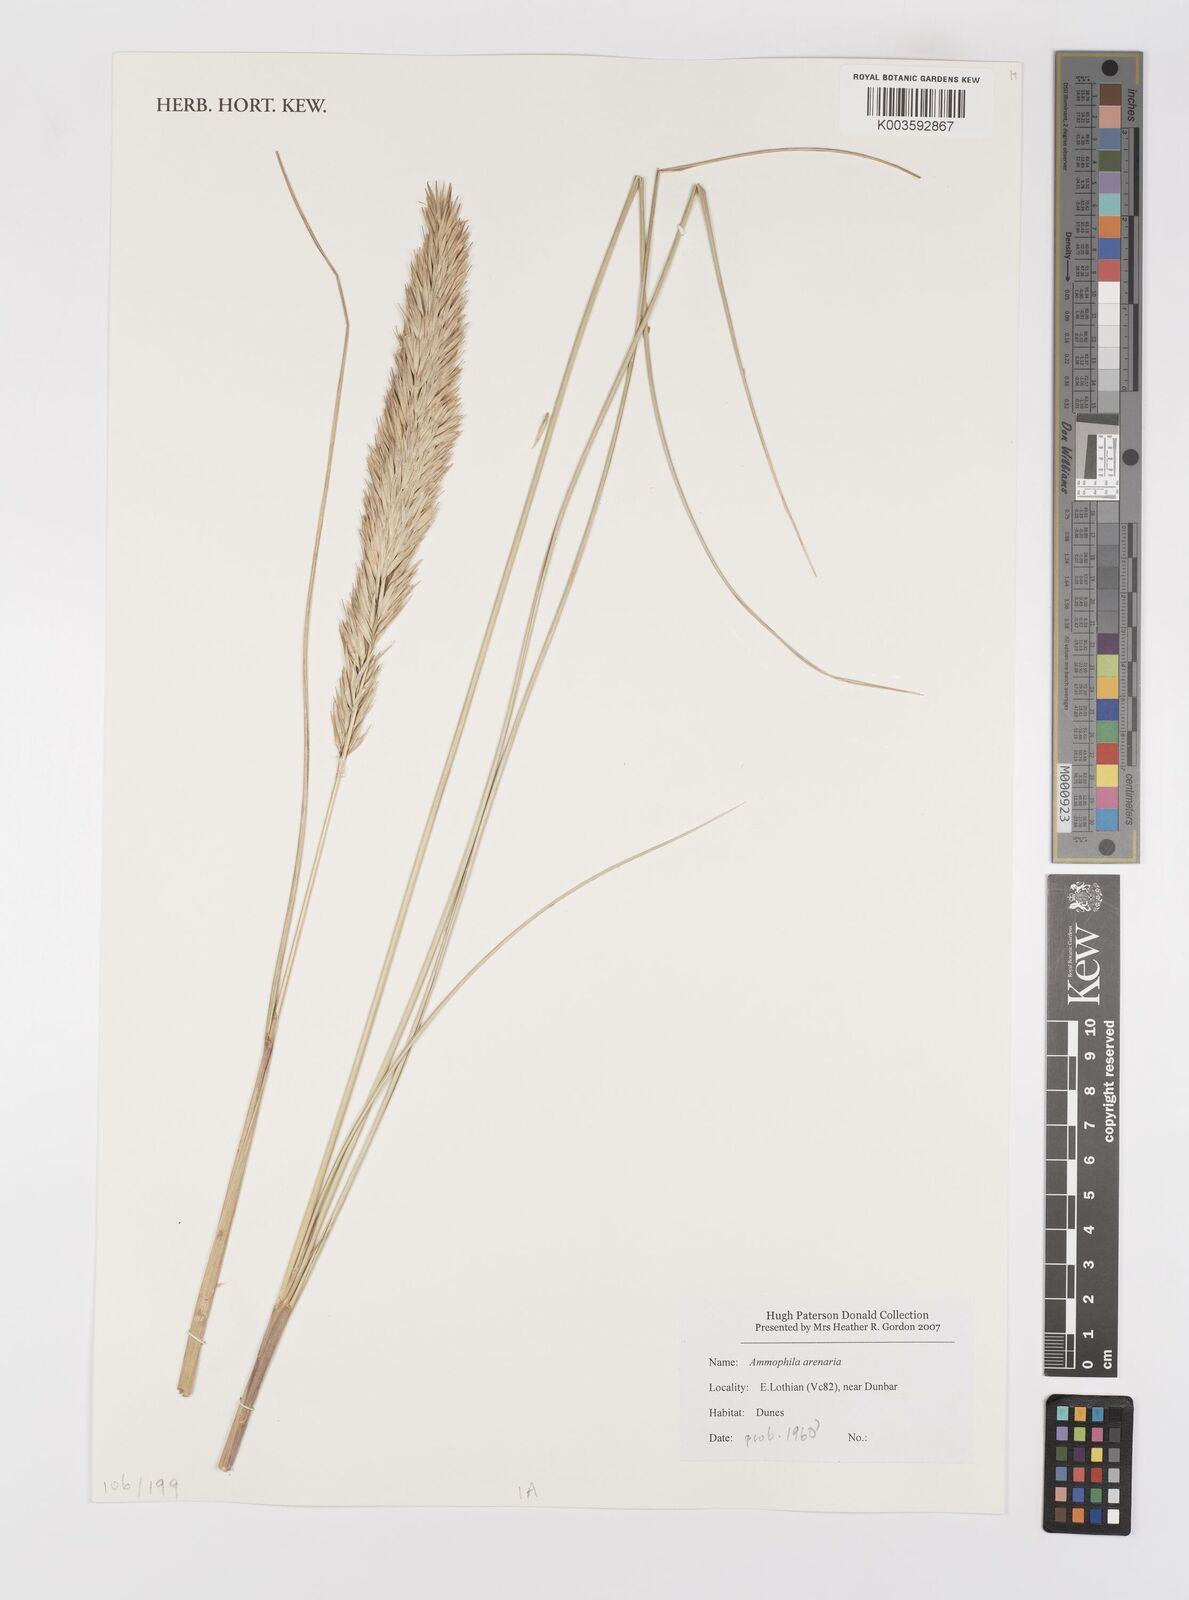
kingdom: Plantae
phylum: Tracheophyta
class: Liliopsida
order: Poales
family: Poaceae
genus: Calamagrostis
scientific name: Calamagrostis arenaria
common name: European beachgrass
